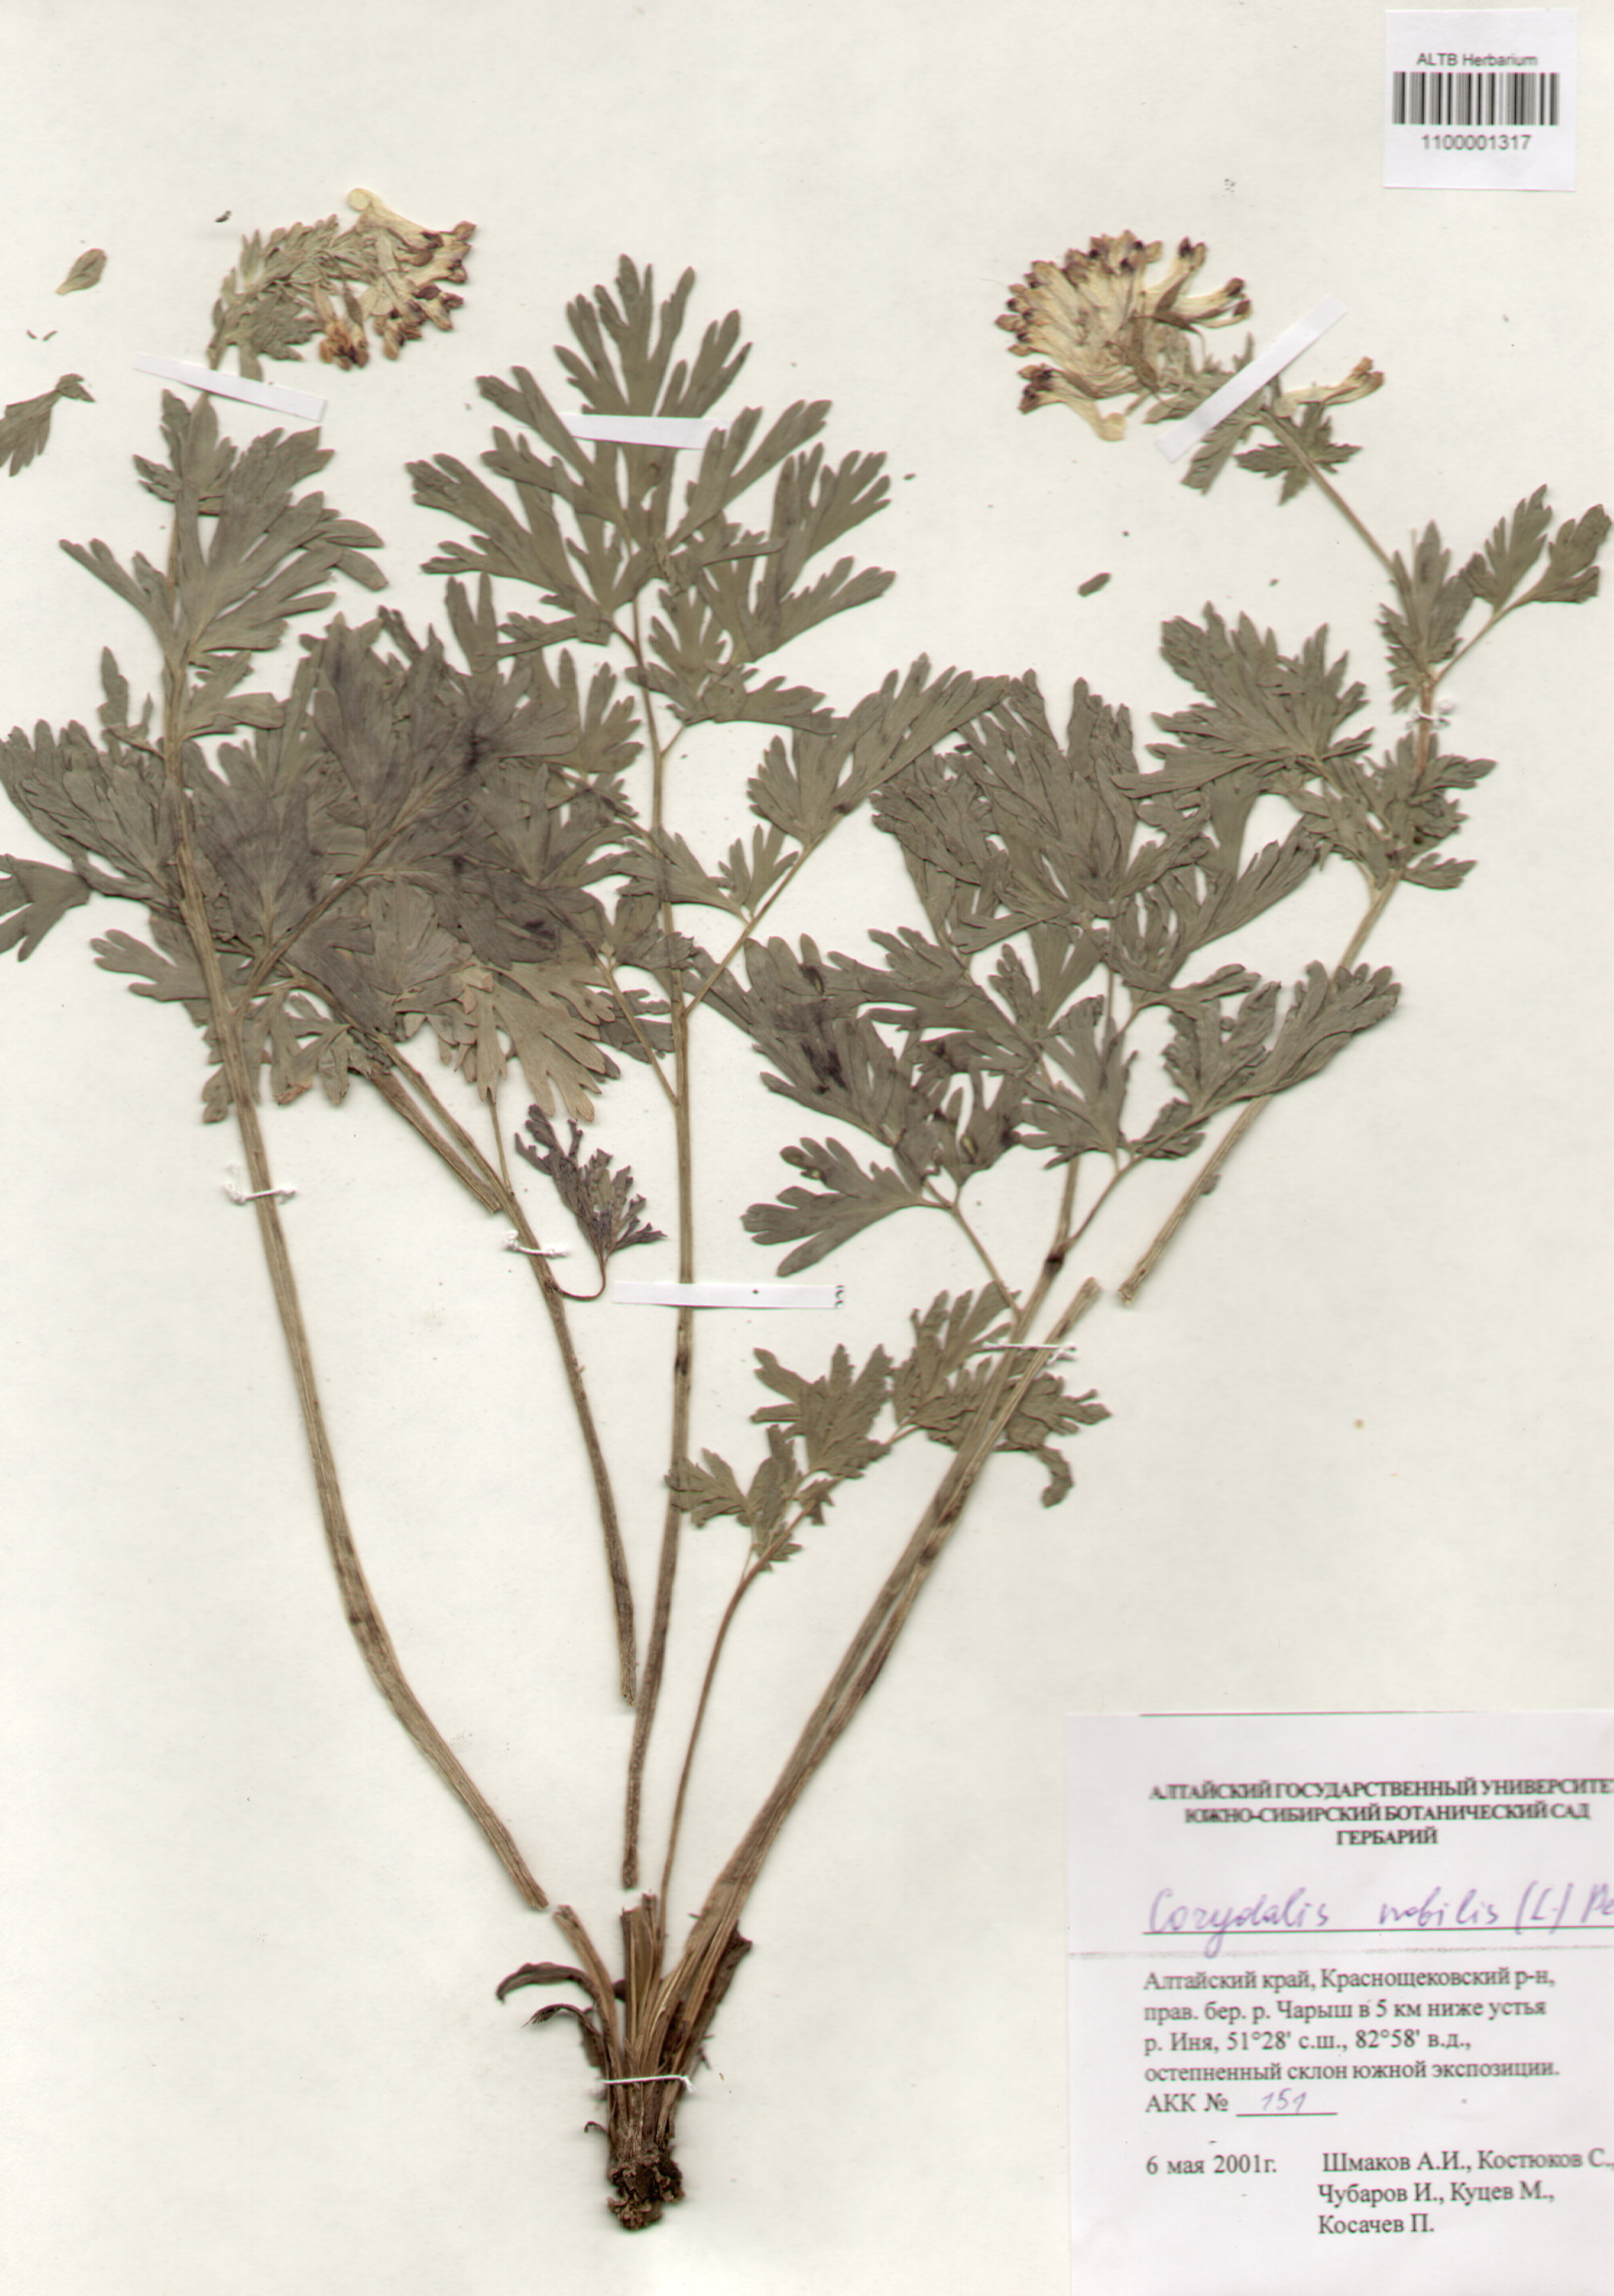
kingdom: Plantae
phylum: Tracheophyta
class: Magnoliopsida
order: Ranunculales
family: Papaveraceae
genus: Corydalis
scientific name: Corydalis nobilis
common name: Siberian corydalis
